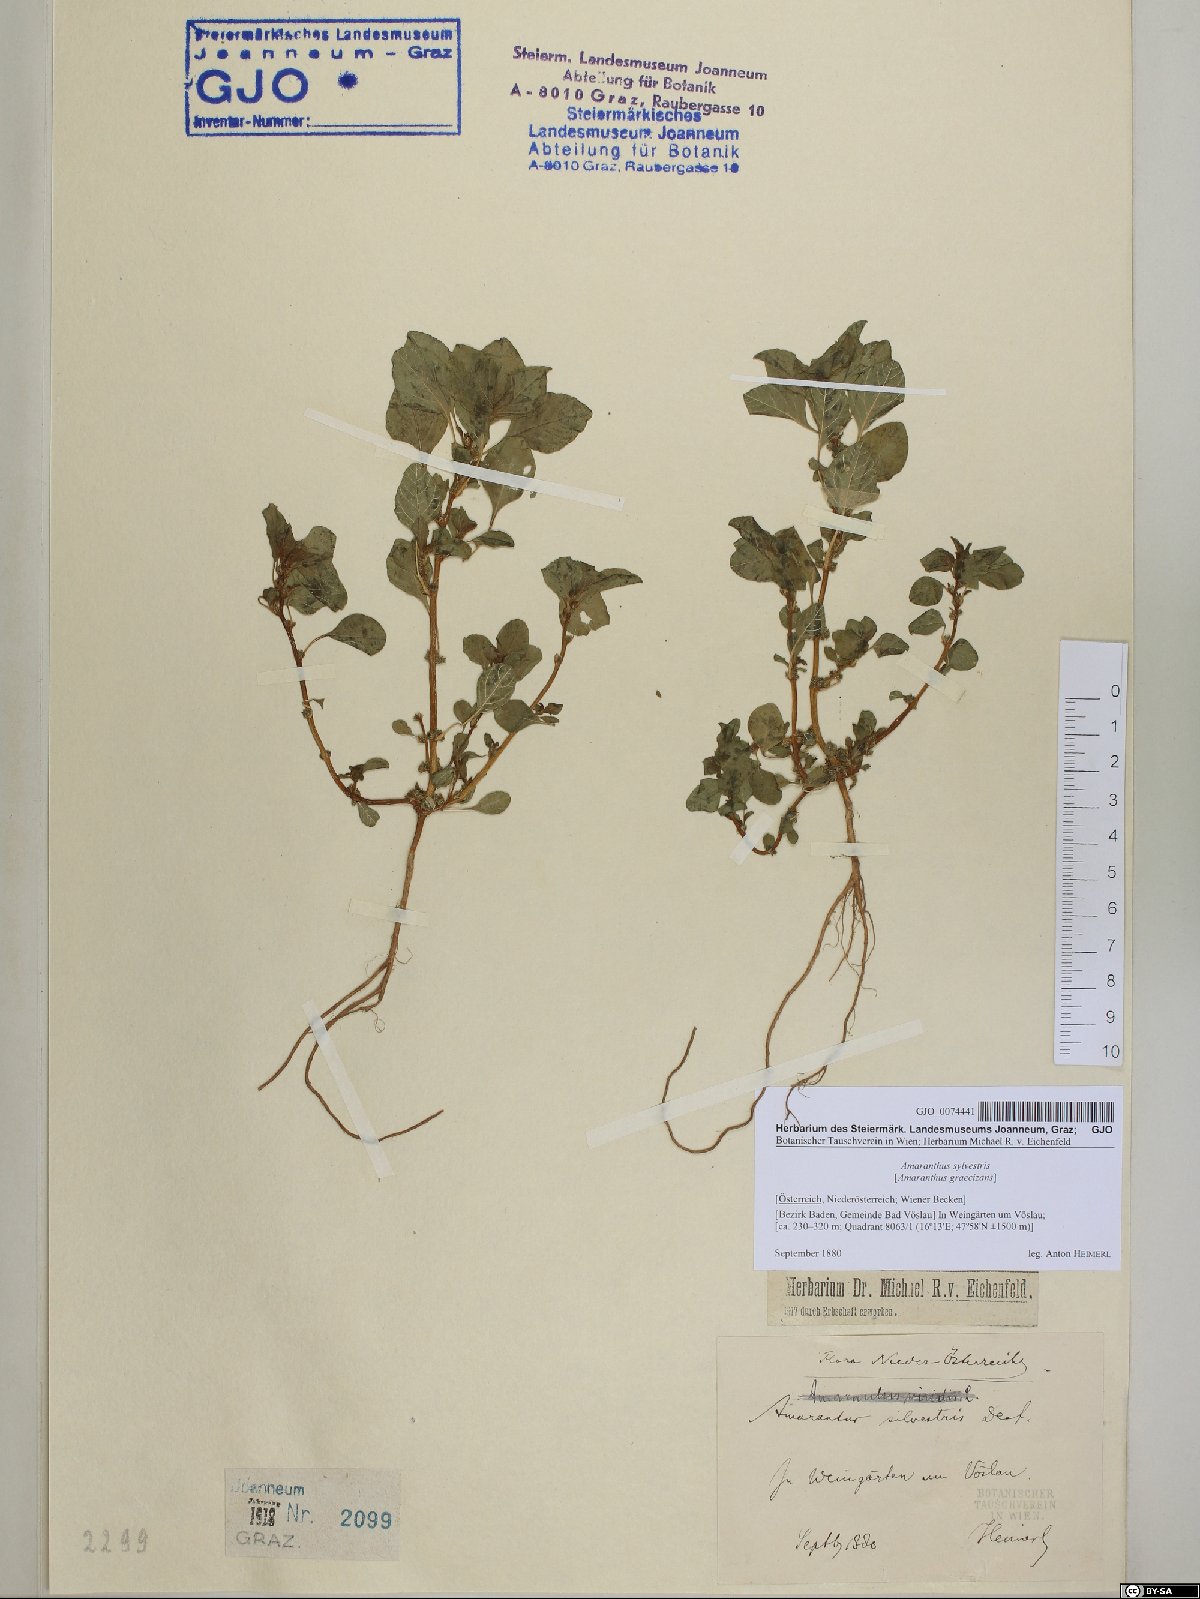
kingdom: Plantae
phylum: Tracheophyta
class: Magnoliopsida
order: Caryophyllales
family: Amaranthaceae
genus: Amaranthus
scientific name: Amaranthus graecizans
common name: Mediterranean amaranth
